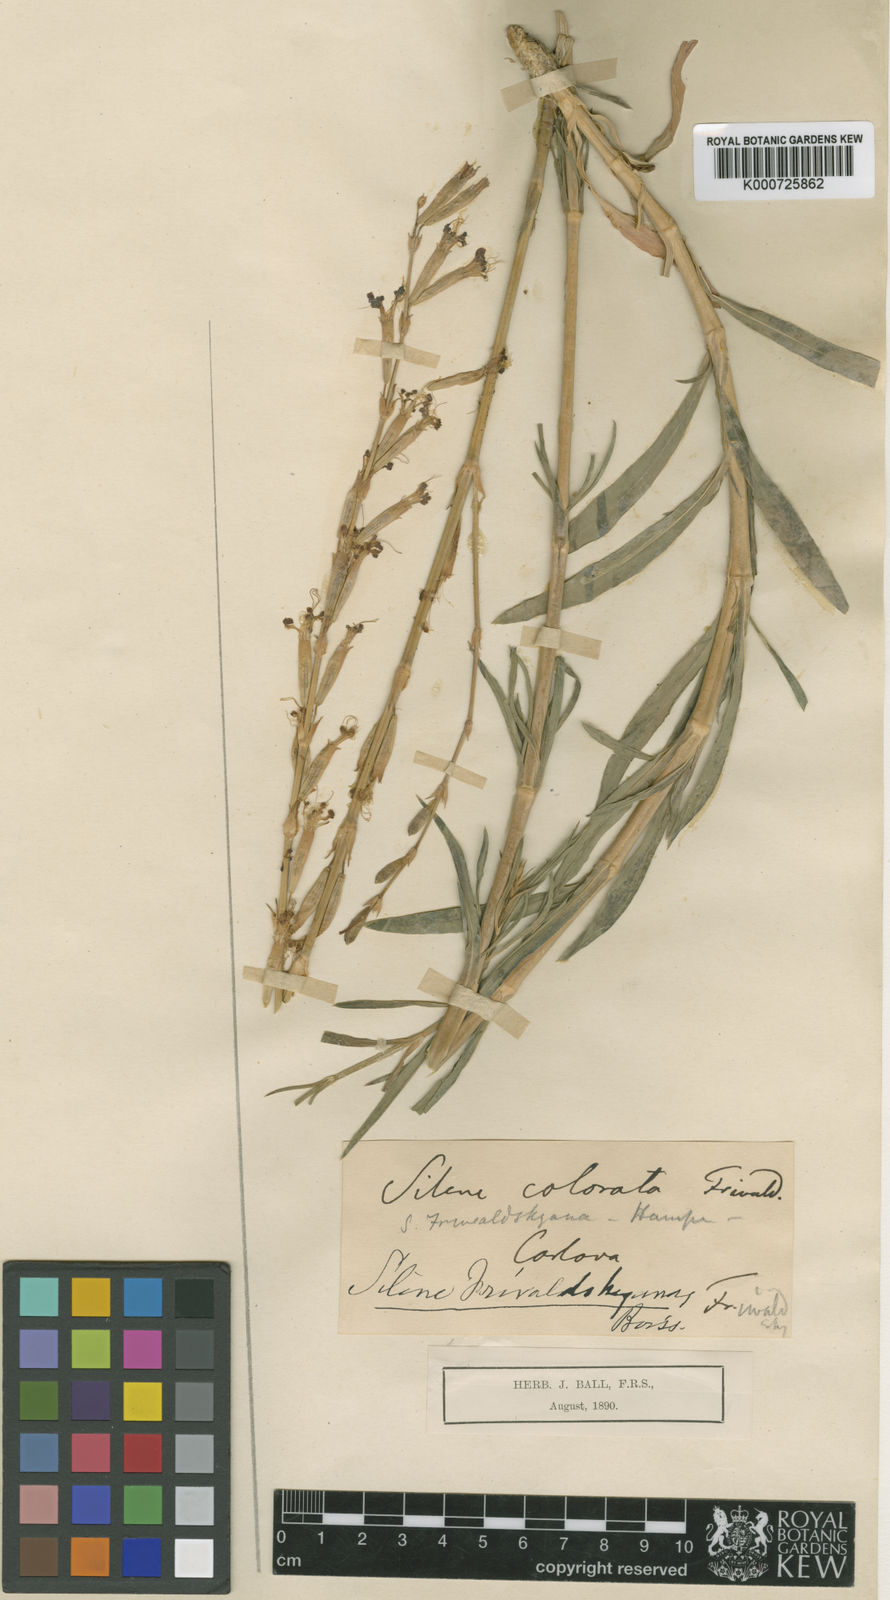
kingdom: Plantae
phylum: Tracheophyta
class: Magnoliopsida
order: Caryophyllales
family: Caryophyllaceae
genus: Silene
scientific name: Silene frivaldskyana
